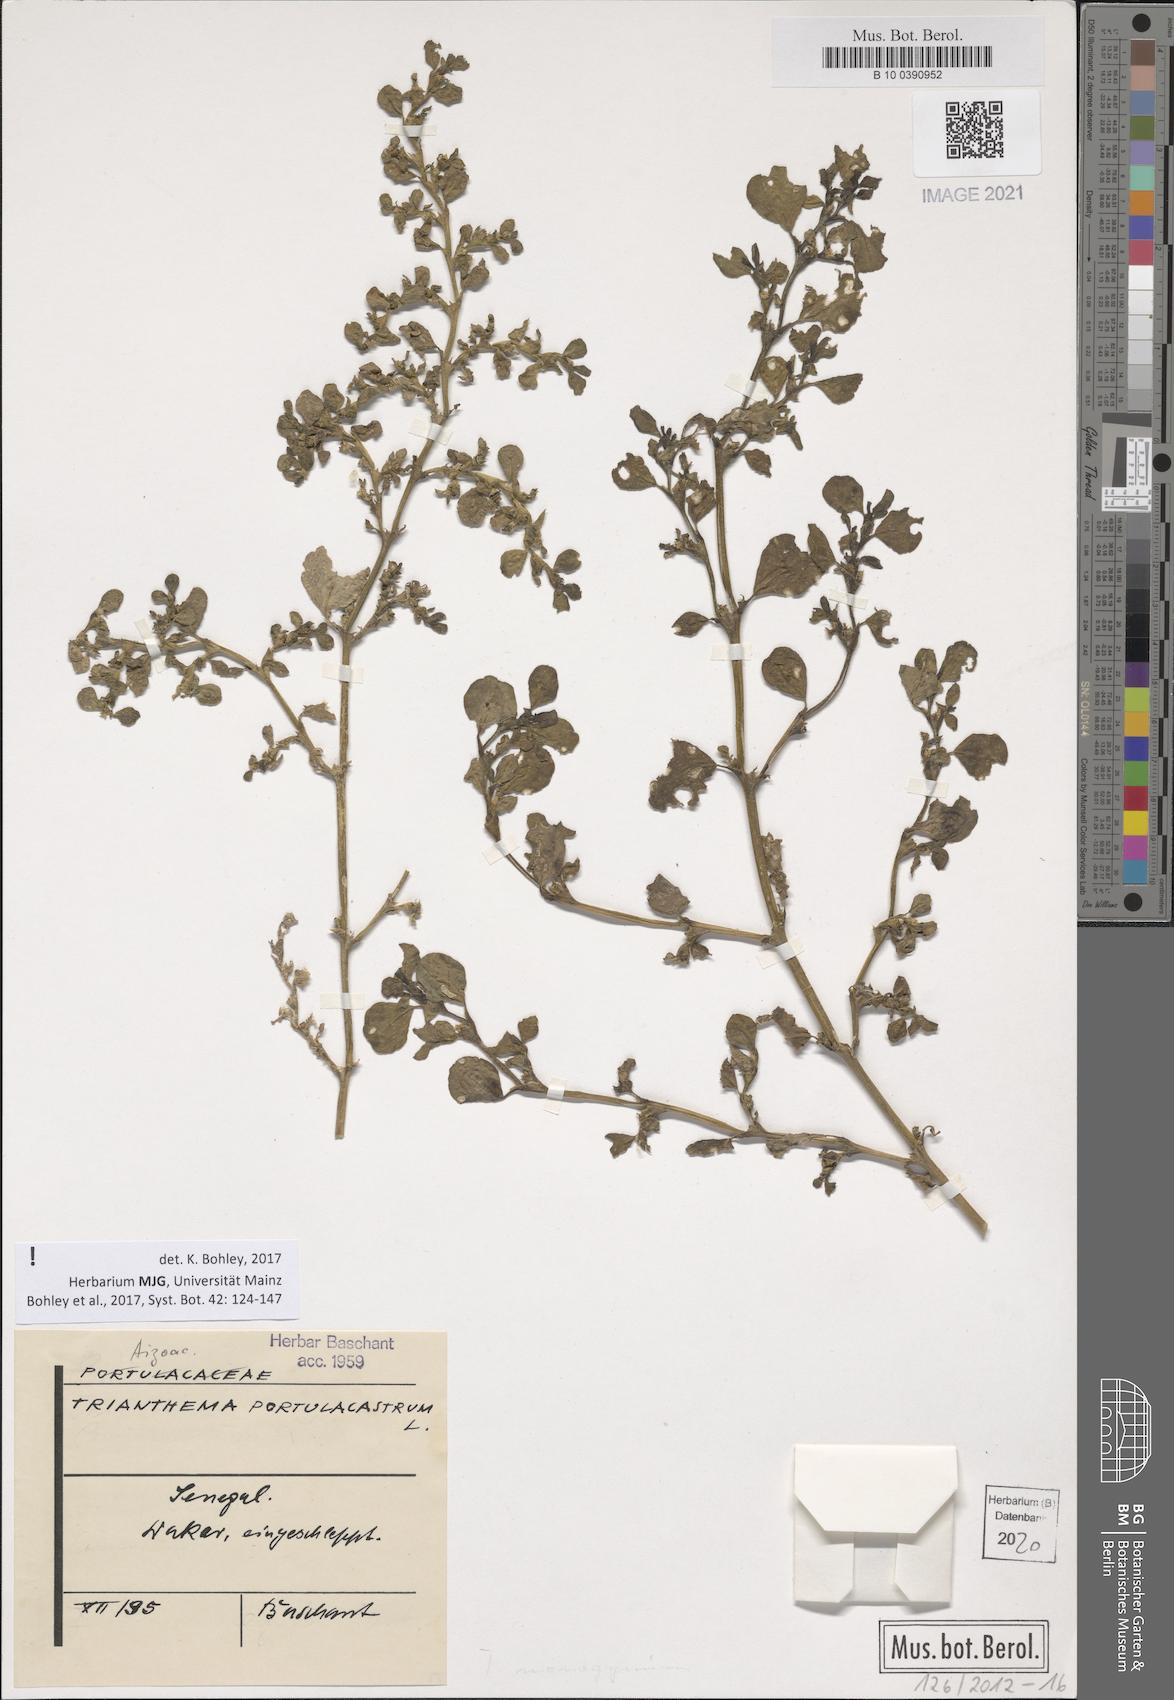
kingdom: Plantae
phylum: Tracheophyta
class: Magnoliopsida
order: Caryophyllales
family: Aizoaceae
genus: Trianthema
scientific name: Trianthema portulacastrum
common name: Desert horsepurslane
